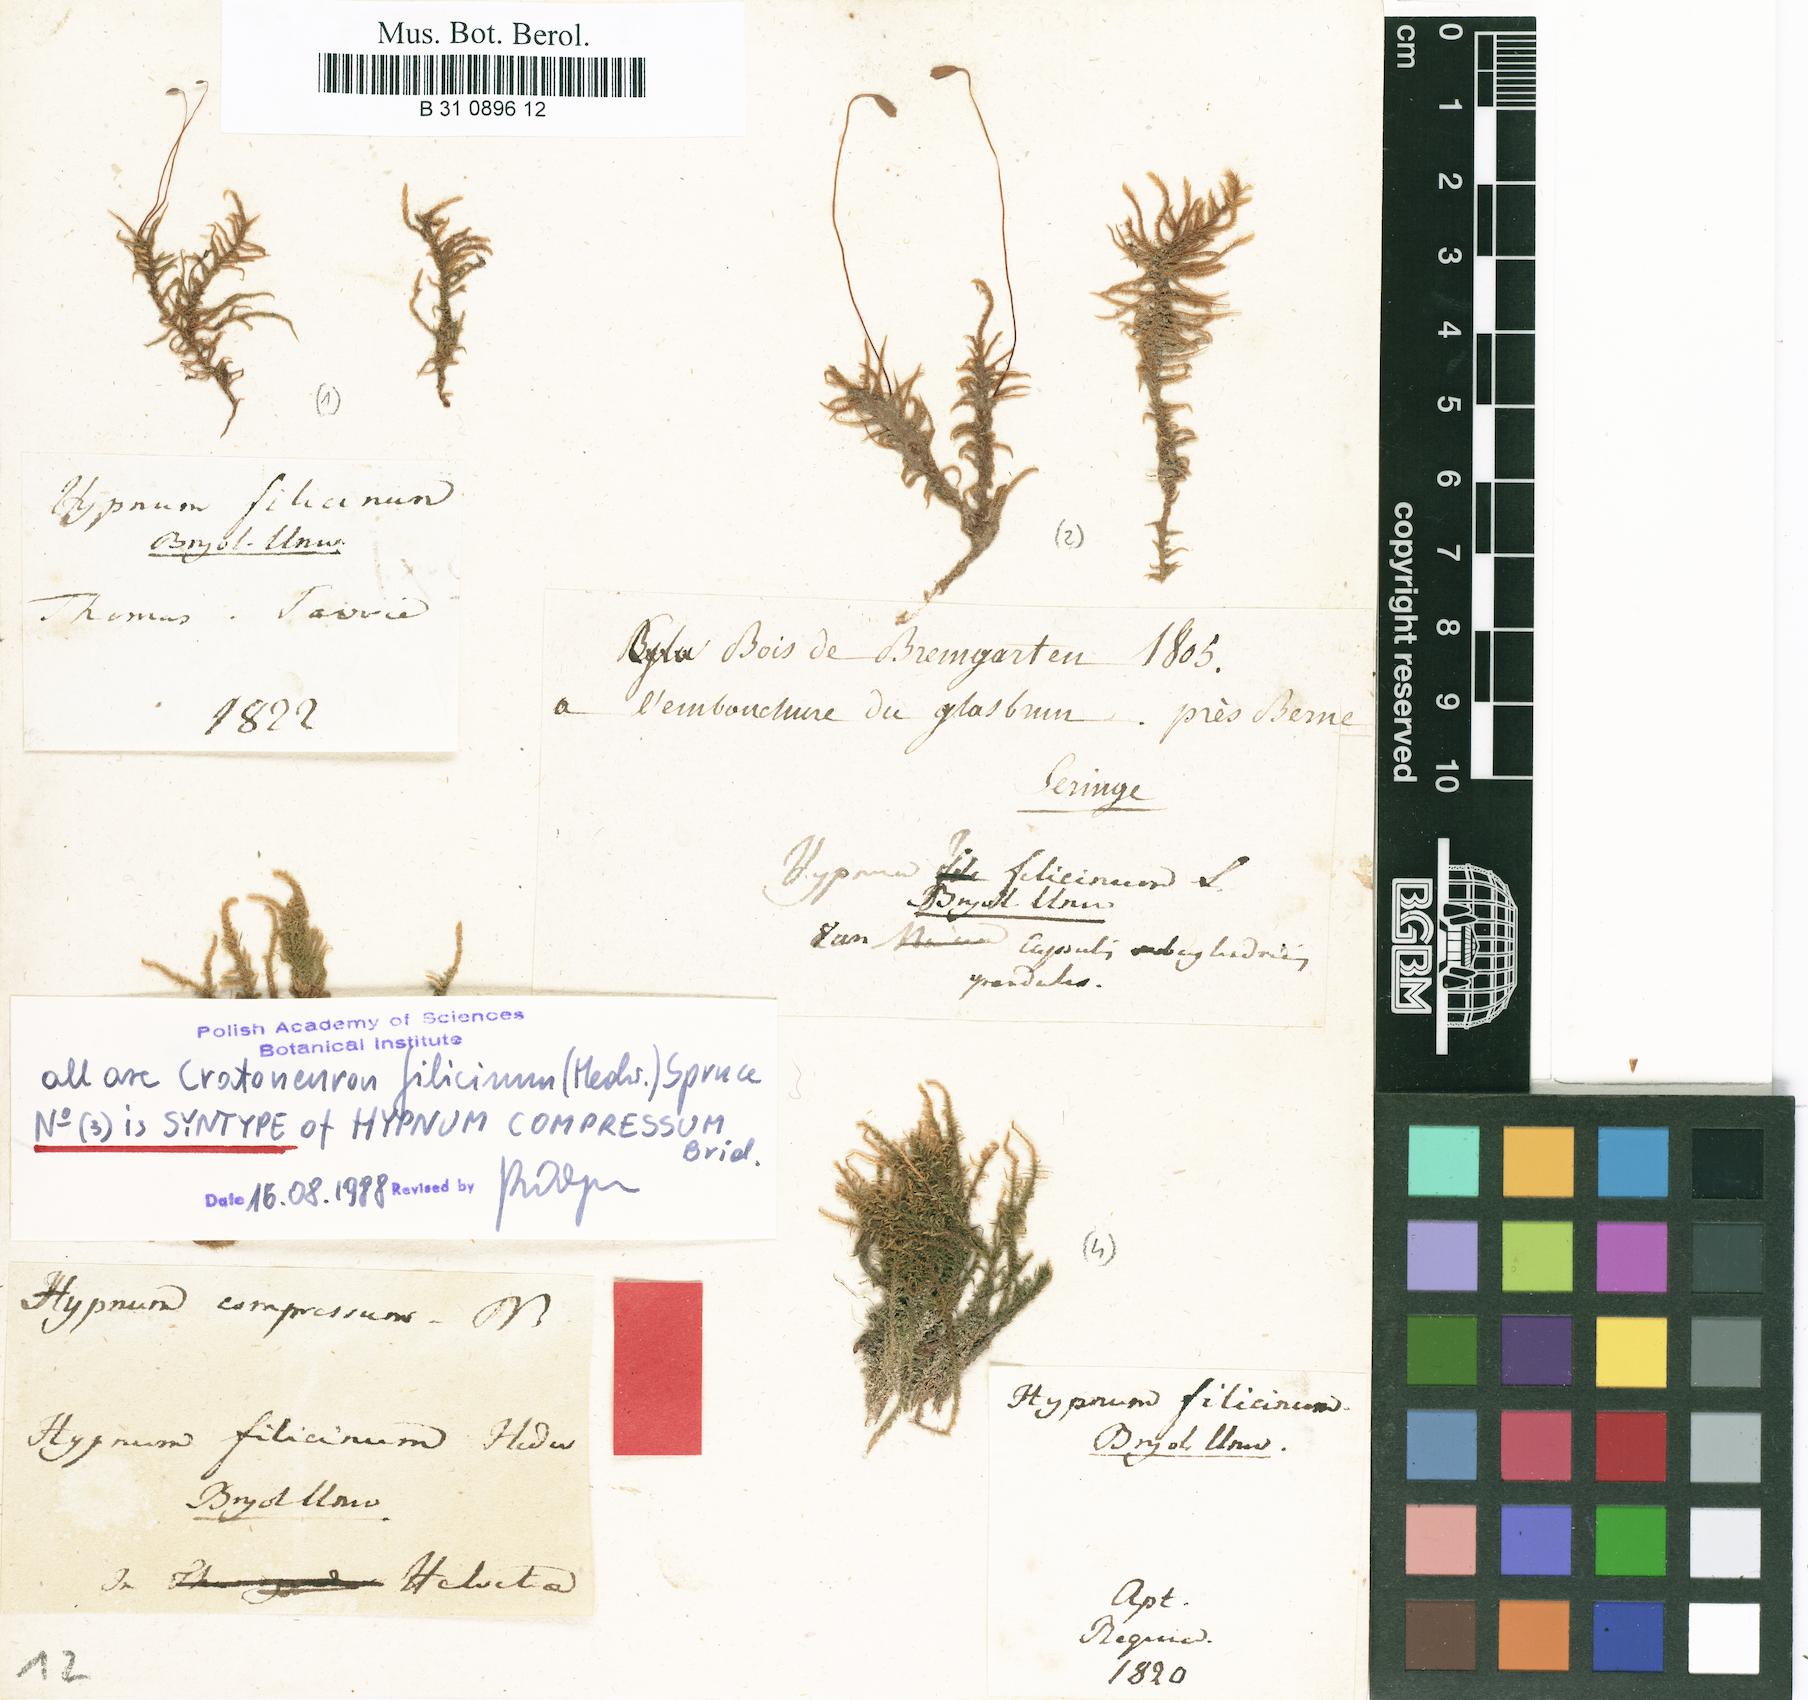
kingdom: Plantae
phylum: Bryophyta
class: Bryopsida
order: Hypnales
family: Amblystegiaceae
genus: Cratoneuron
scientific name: Cratoneuron filicinum
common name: Fern-leaved hook moss
